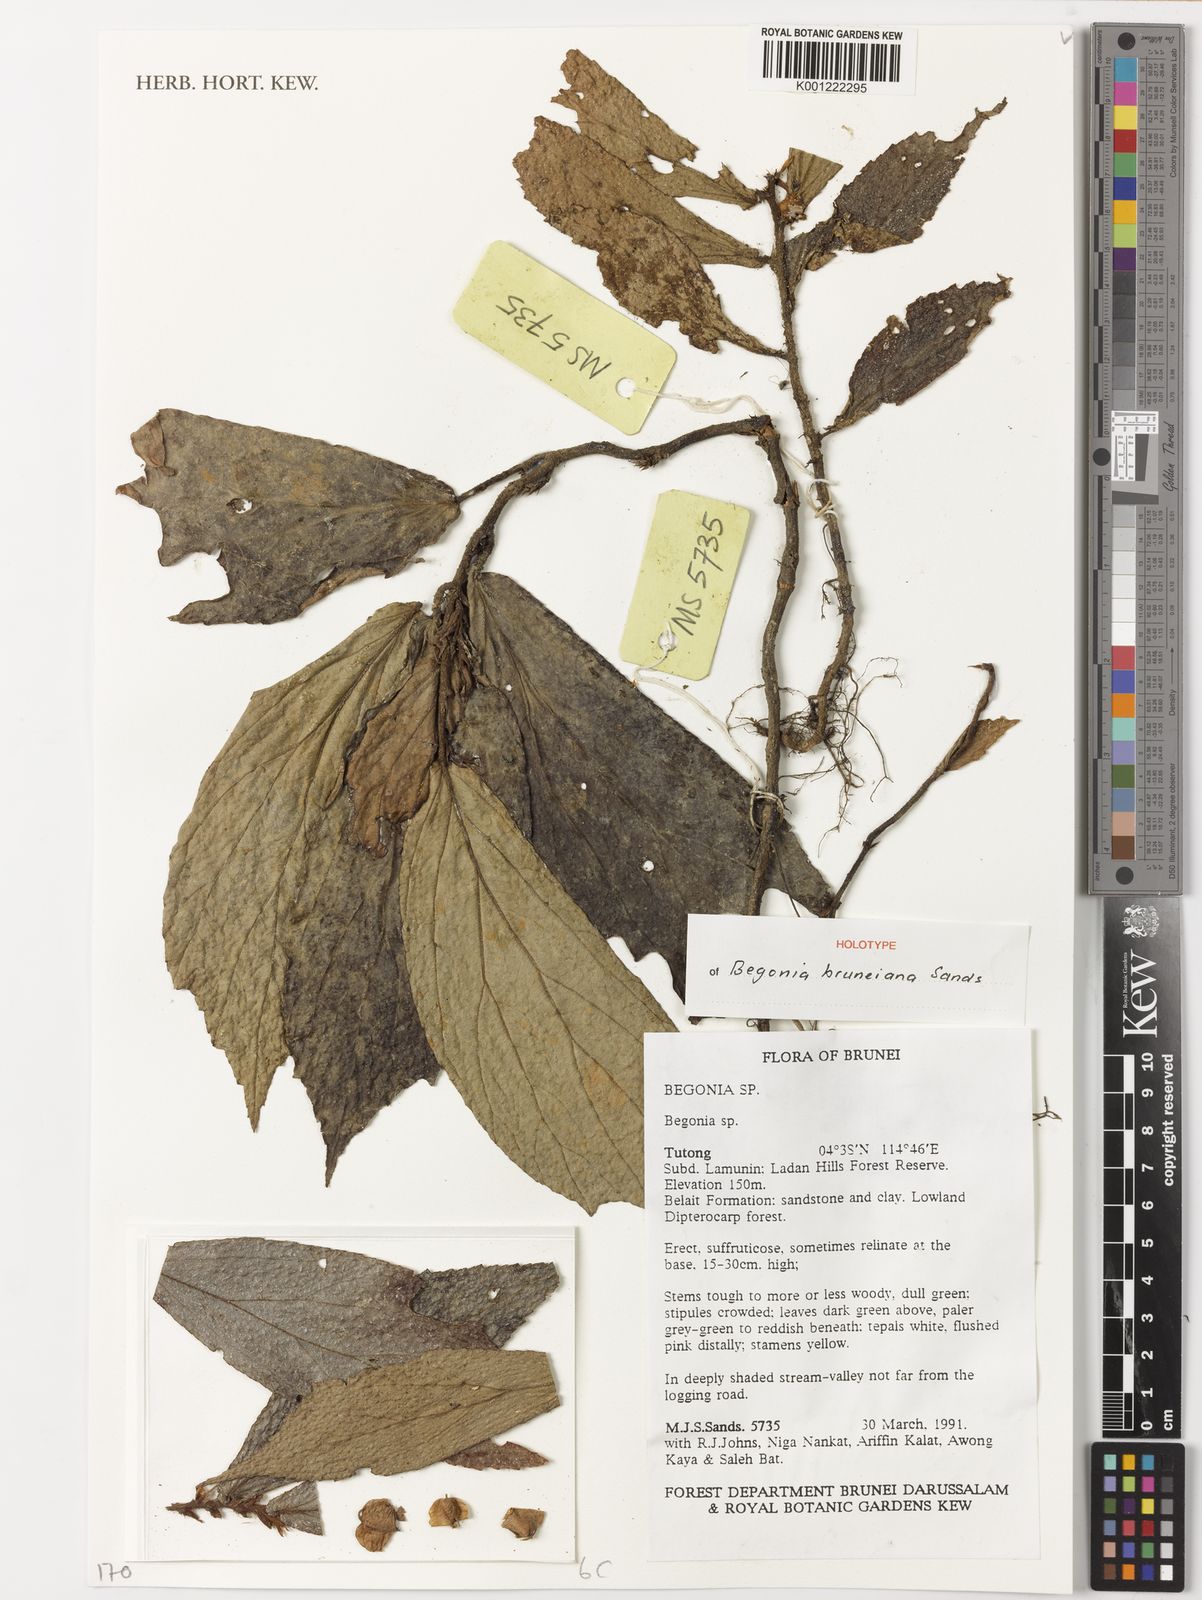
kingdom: Plantae
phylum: Tracheophyta
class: Magnoliopsida
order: Cucurbitales
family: Begoniaceae
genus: Begonia
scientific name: Begonia bruneiana
